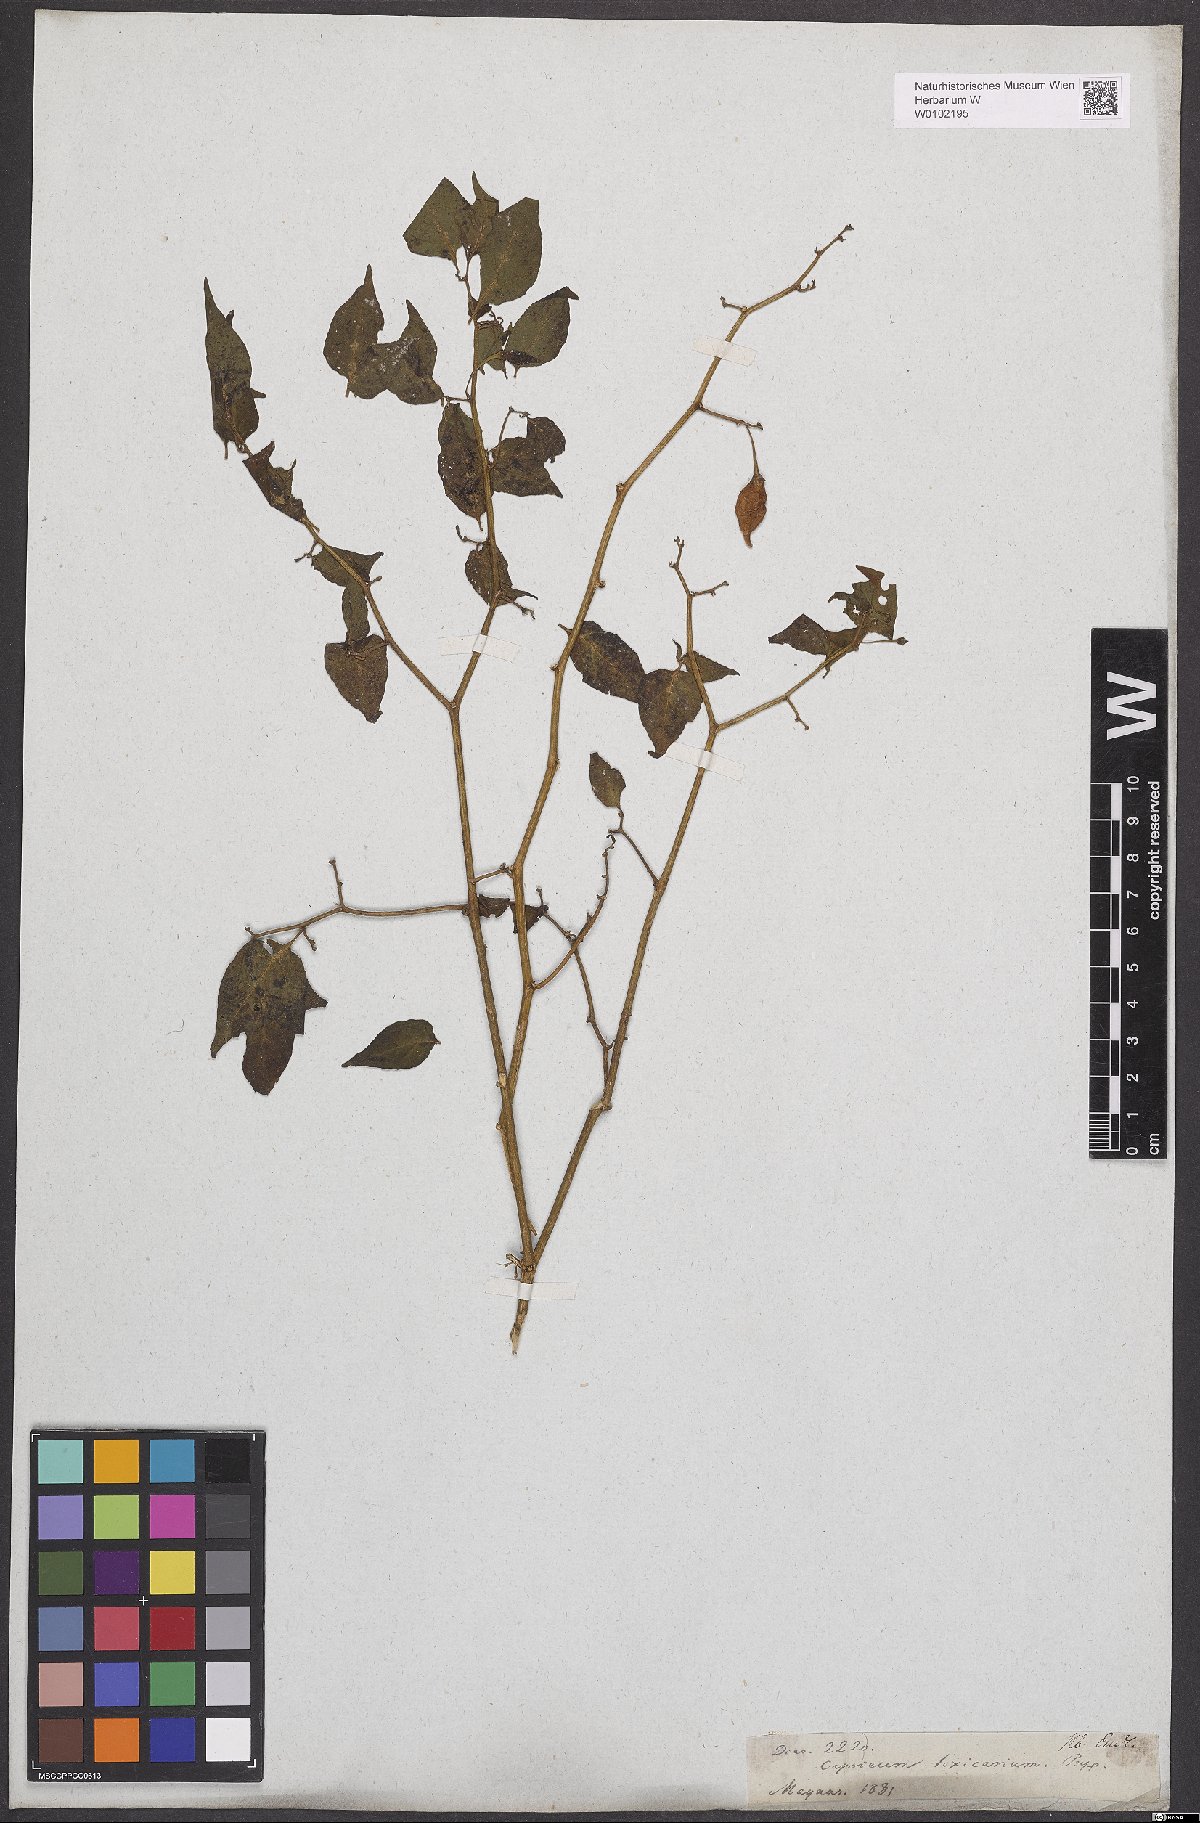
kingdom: Plantae
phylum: Tracheophyta
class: Magnoliopsida
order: Solanales
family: Solanaceae
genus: Capsicum
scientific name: Capsicum chinense
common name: Yellow squash pepper
